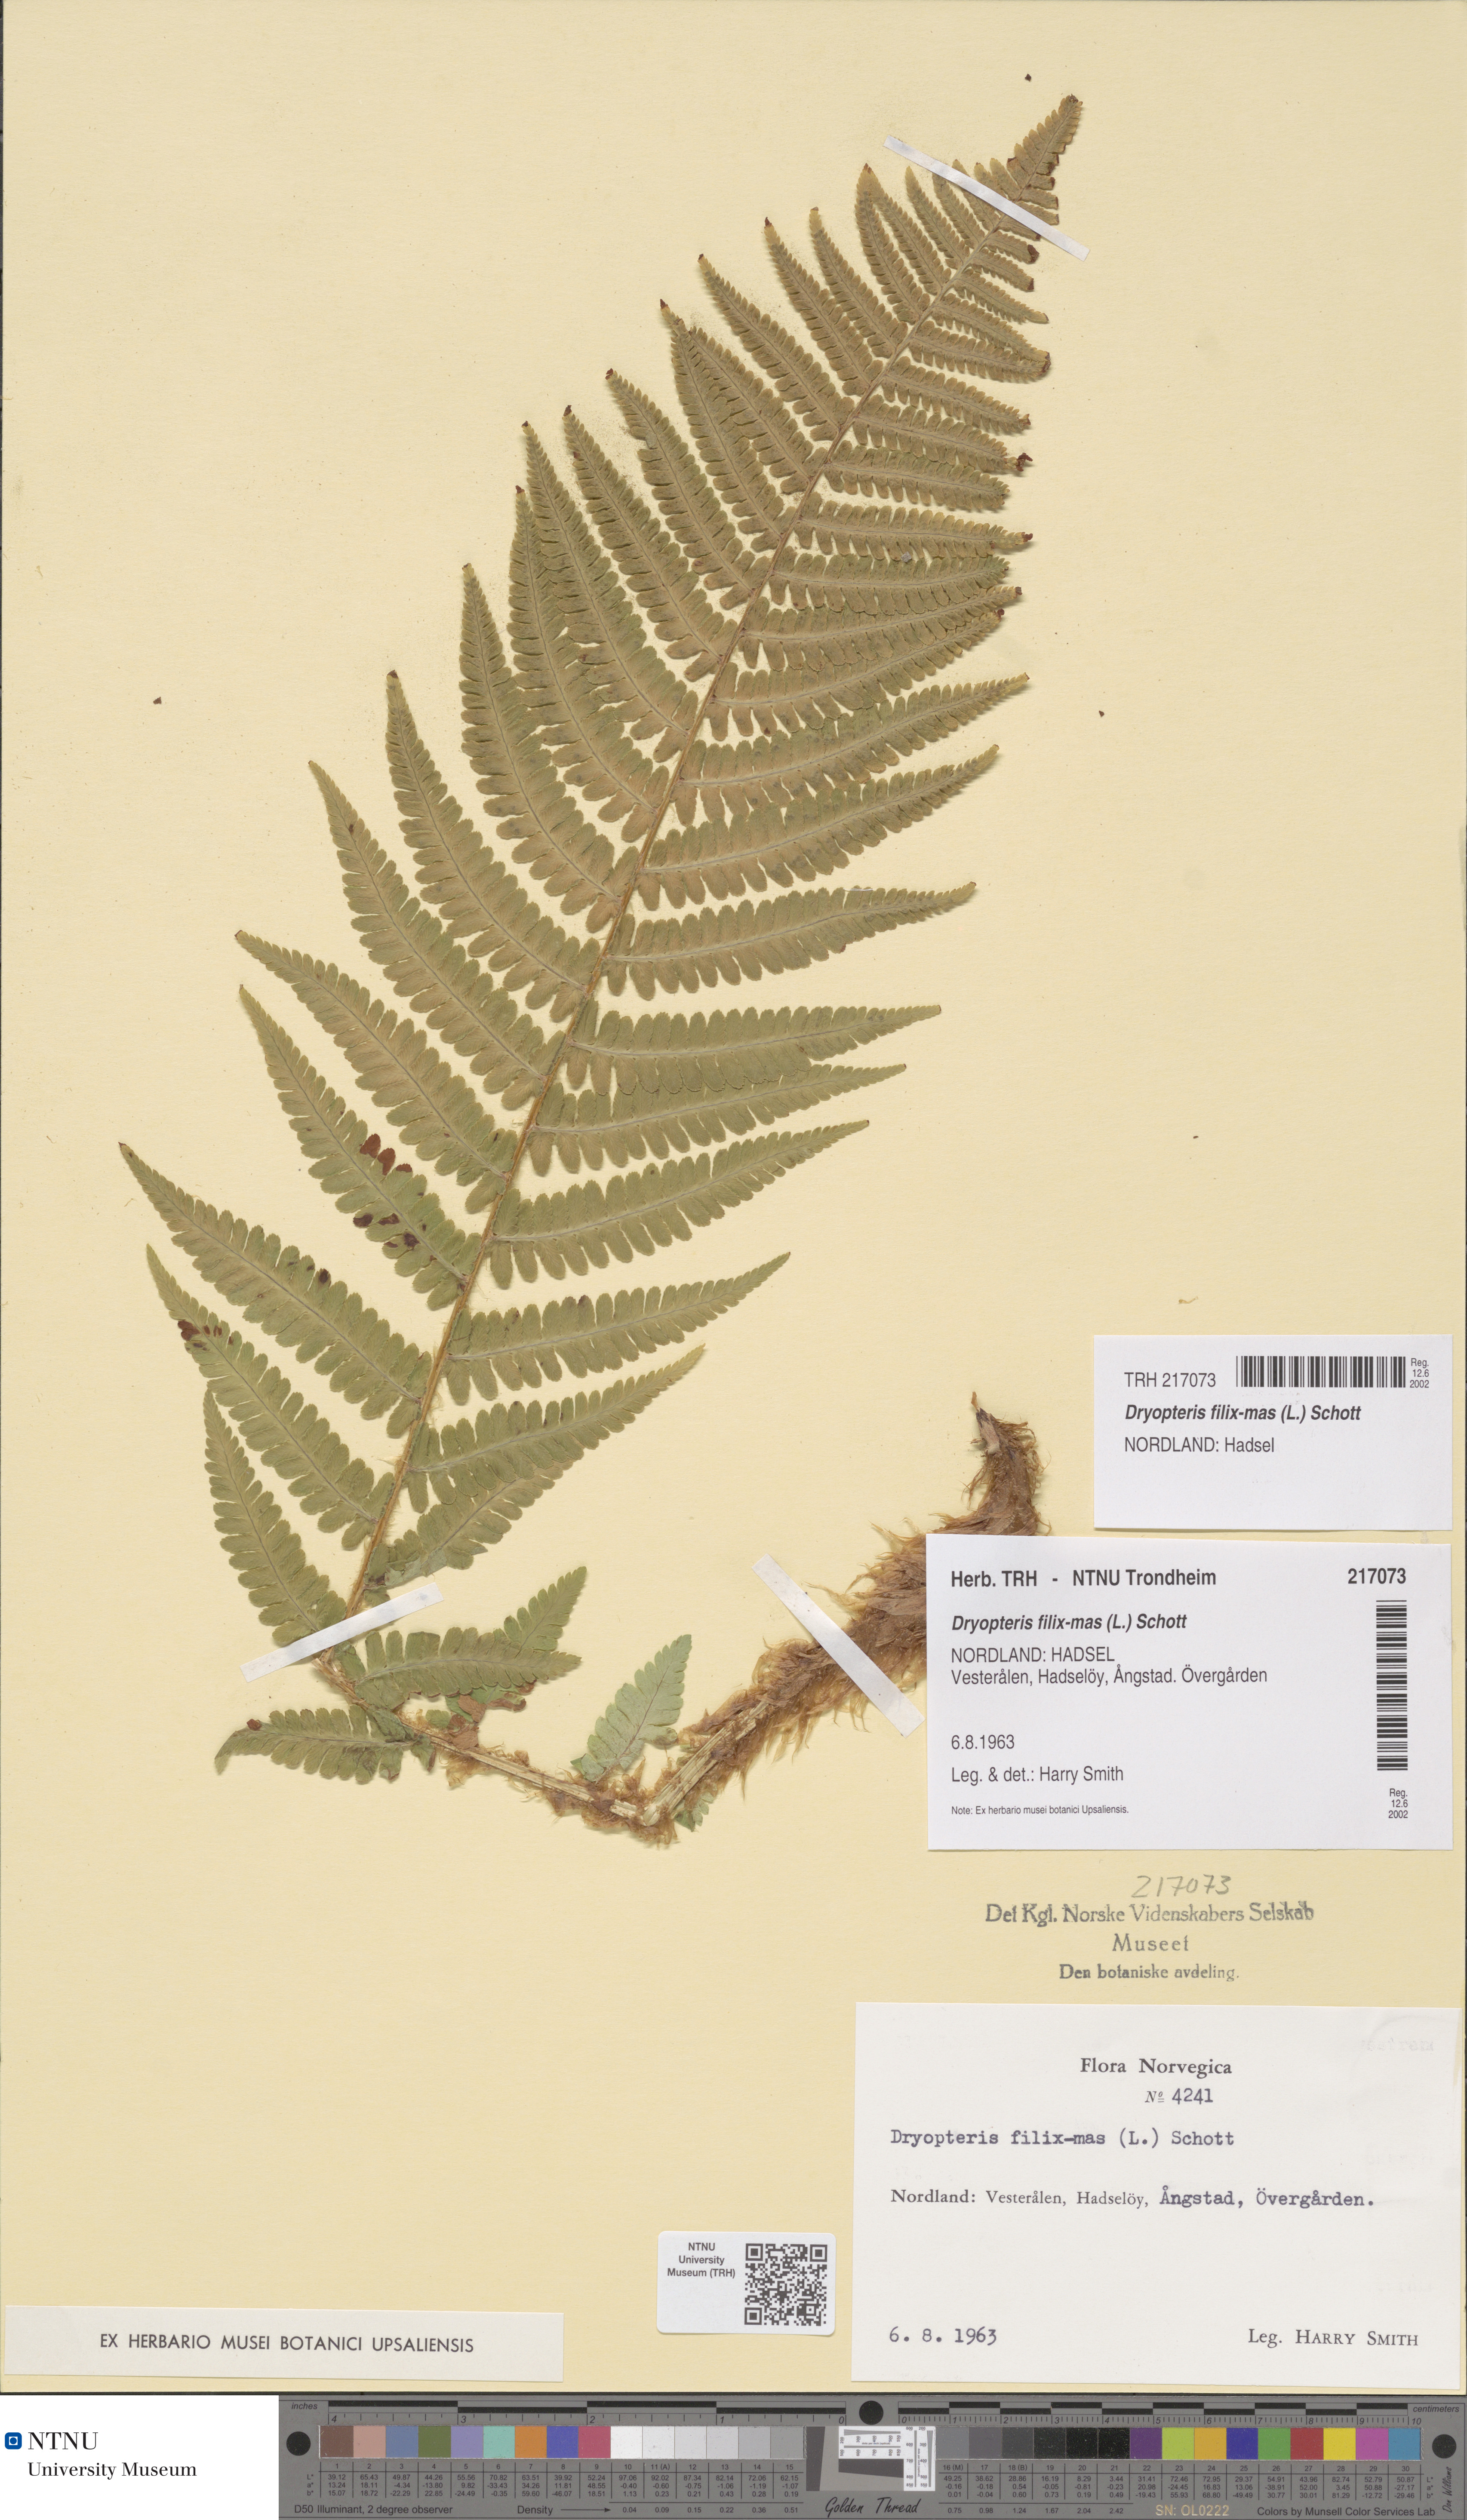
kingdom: Plantae
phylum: Tracheophyta
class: Polypodiopsida
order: Polypodiales
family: Dryopteridaceae
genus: Dryopteris
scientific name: Dryopteris filix-mas
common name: Male fern
